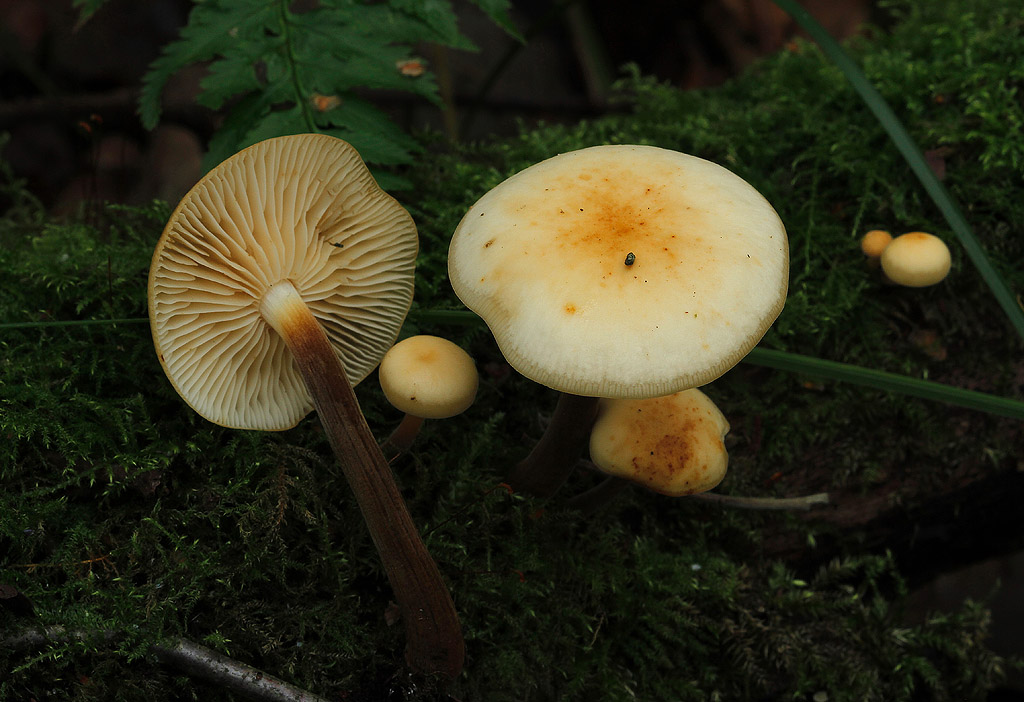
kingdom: Fungi
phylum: Basidiomycota
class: Agaricomycetes
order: Agaricales
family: Physalacriaceae
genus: Flammulina
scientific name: Flammulina elastica
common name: pile-fløjlsfod
